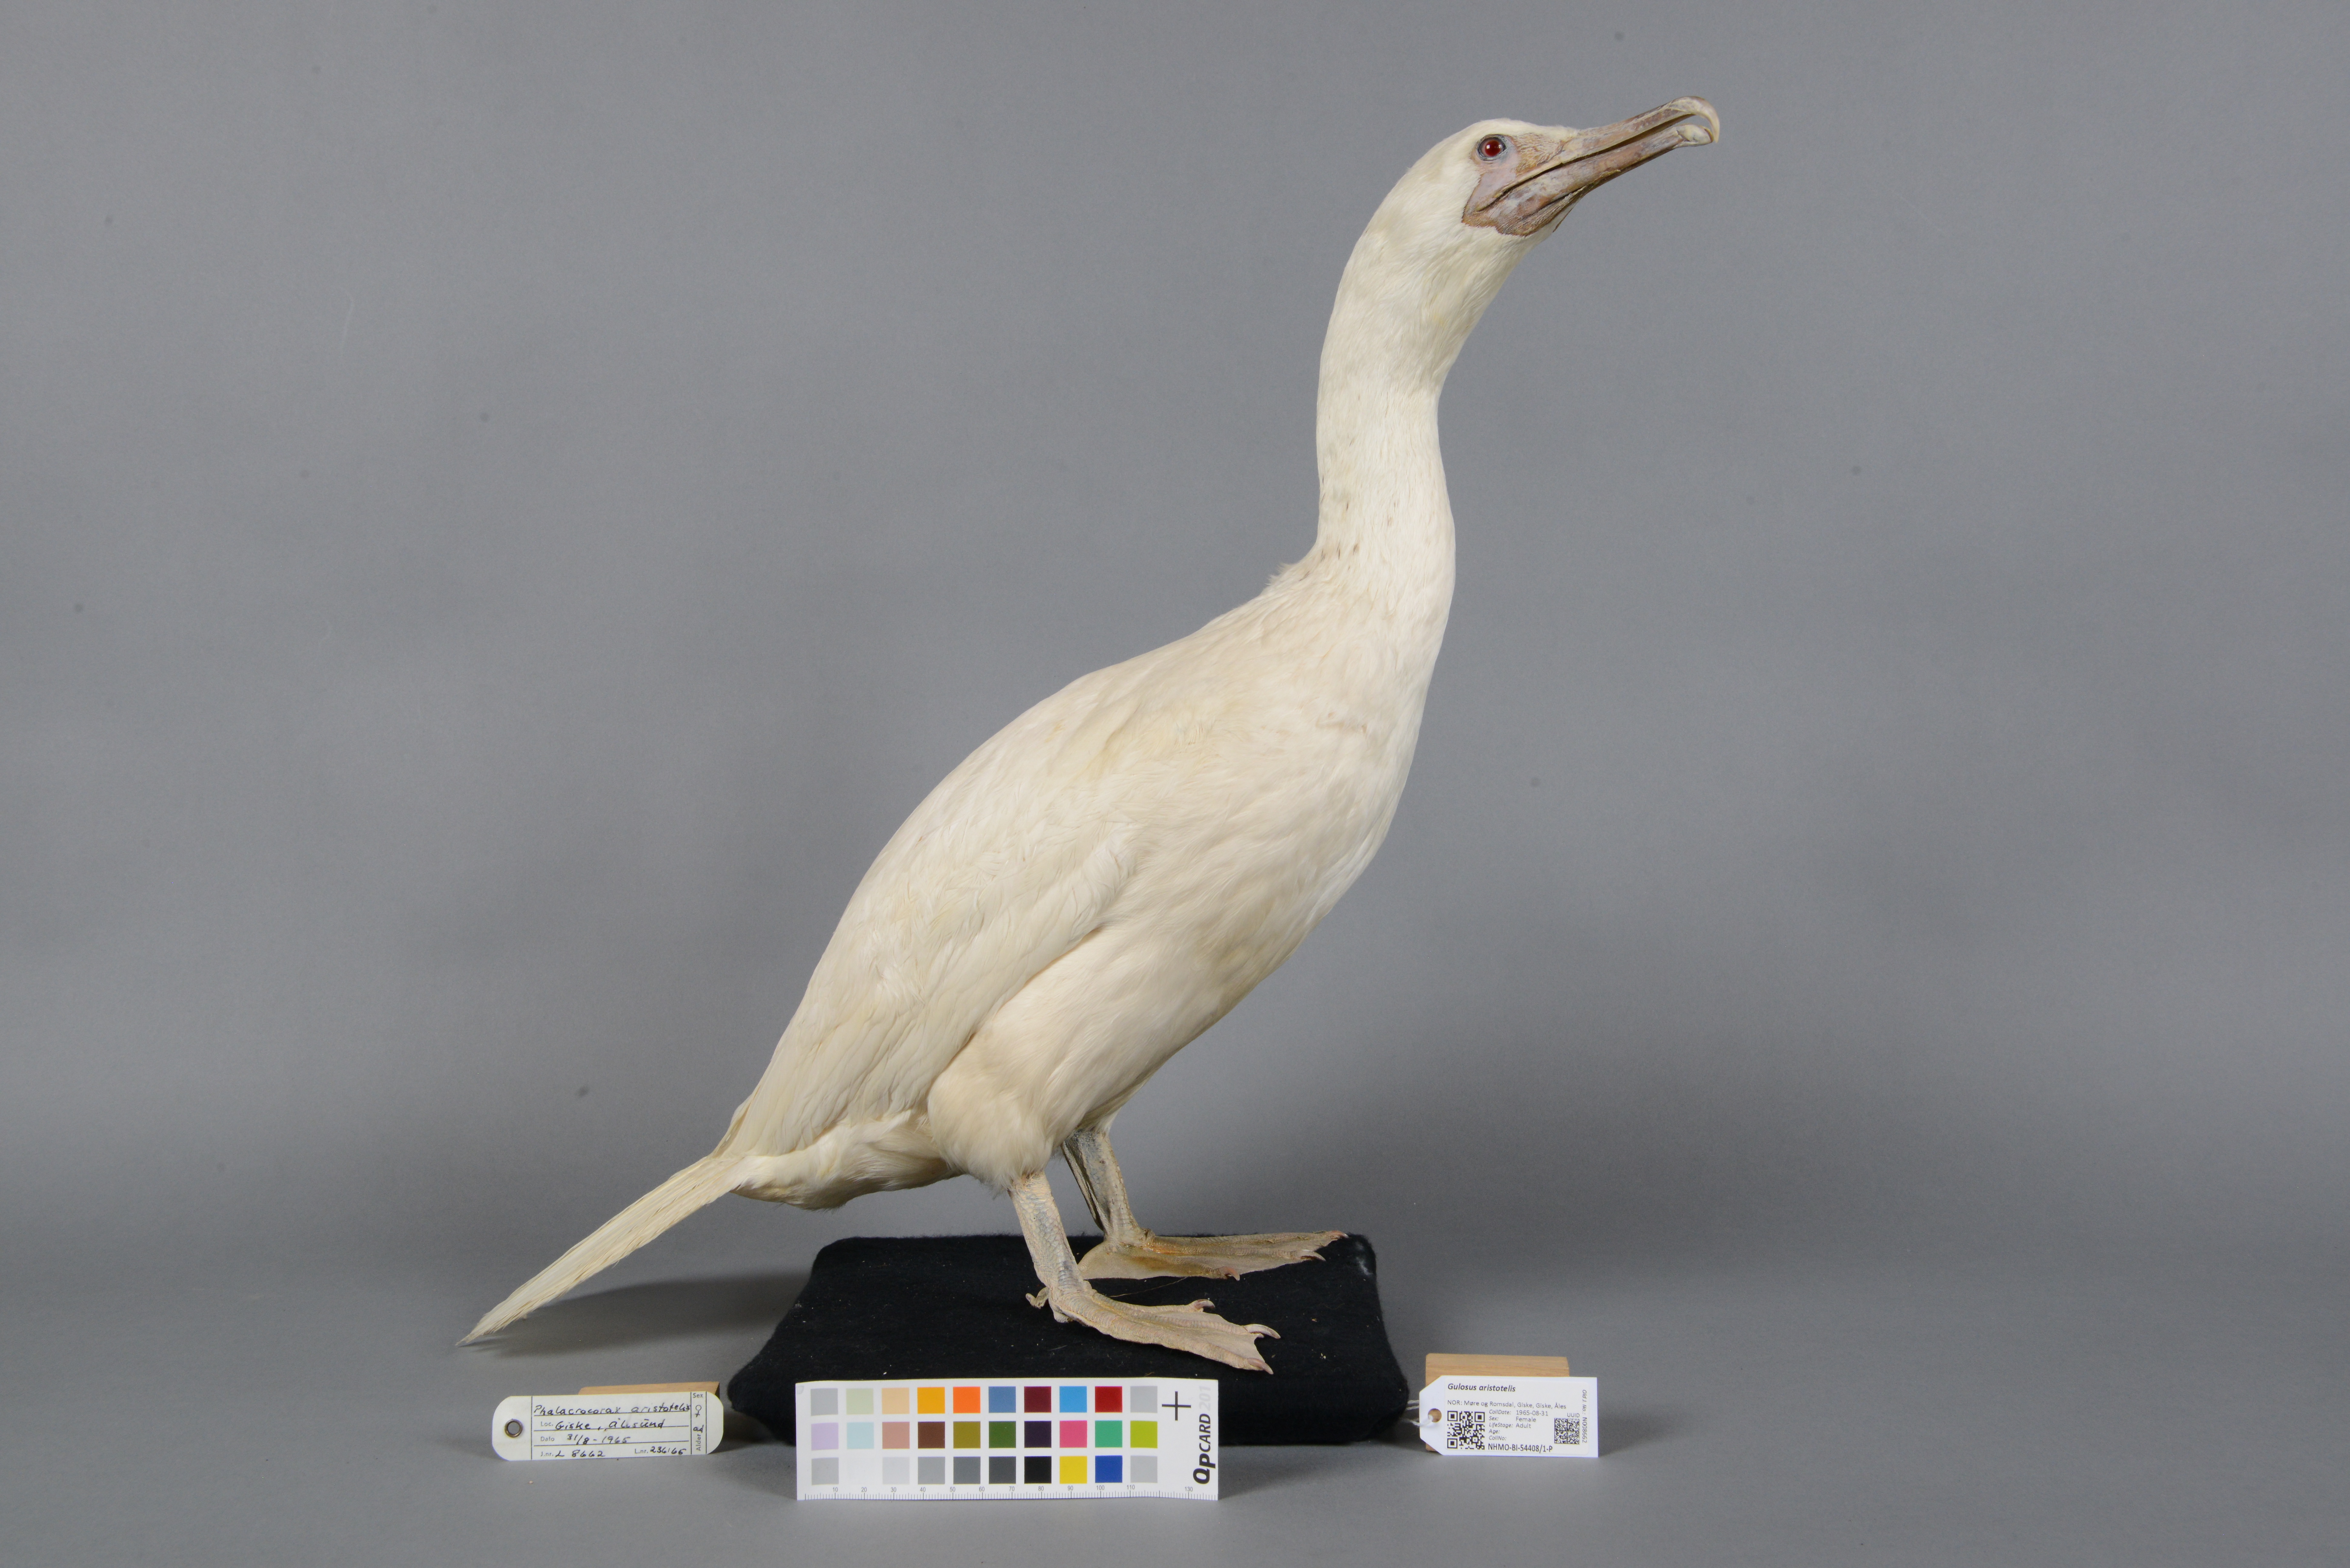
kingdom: Animalia
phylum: Chordata
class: Aves
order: Suliformes
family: Phalacrocoracidae
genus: Phalacrocorax
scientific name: Phalacrocorax aristotelis
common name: European shag
